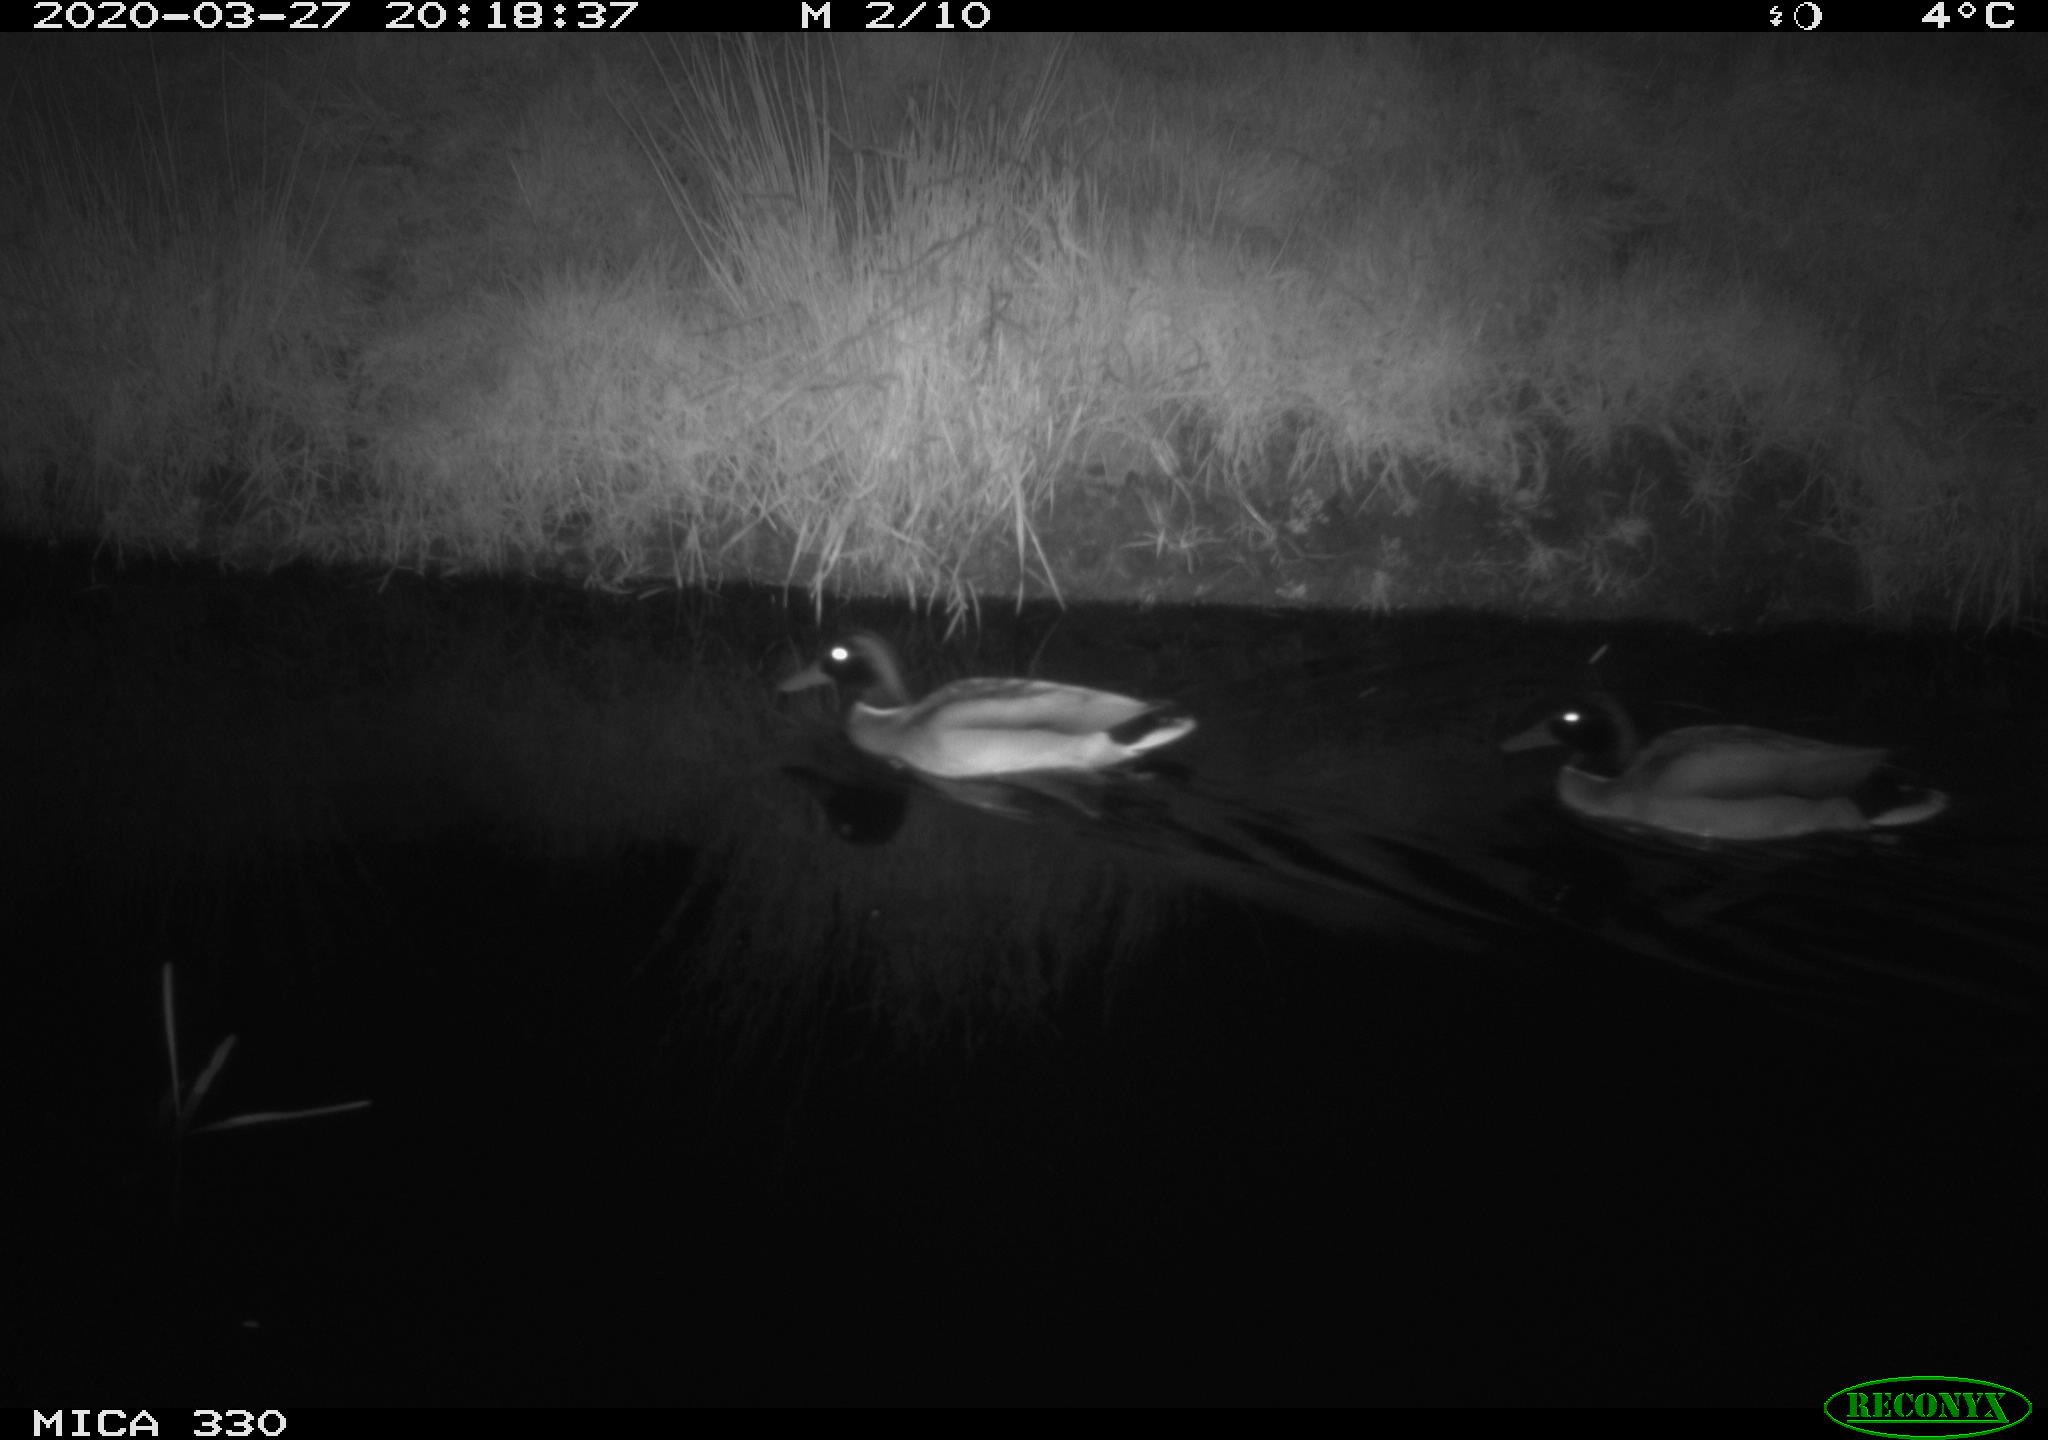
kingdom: Animalia
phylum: Chordata
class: Aves
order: Anseriformes
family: Anatidae
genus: Anas
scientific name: Anas platyrhynchos
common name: Mallard
